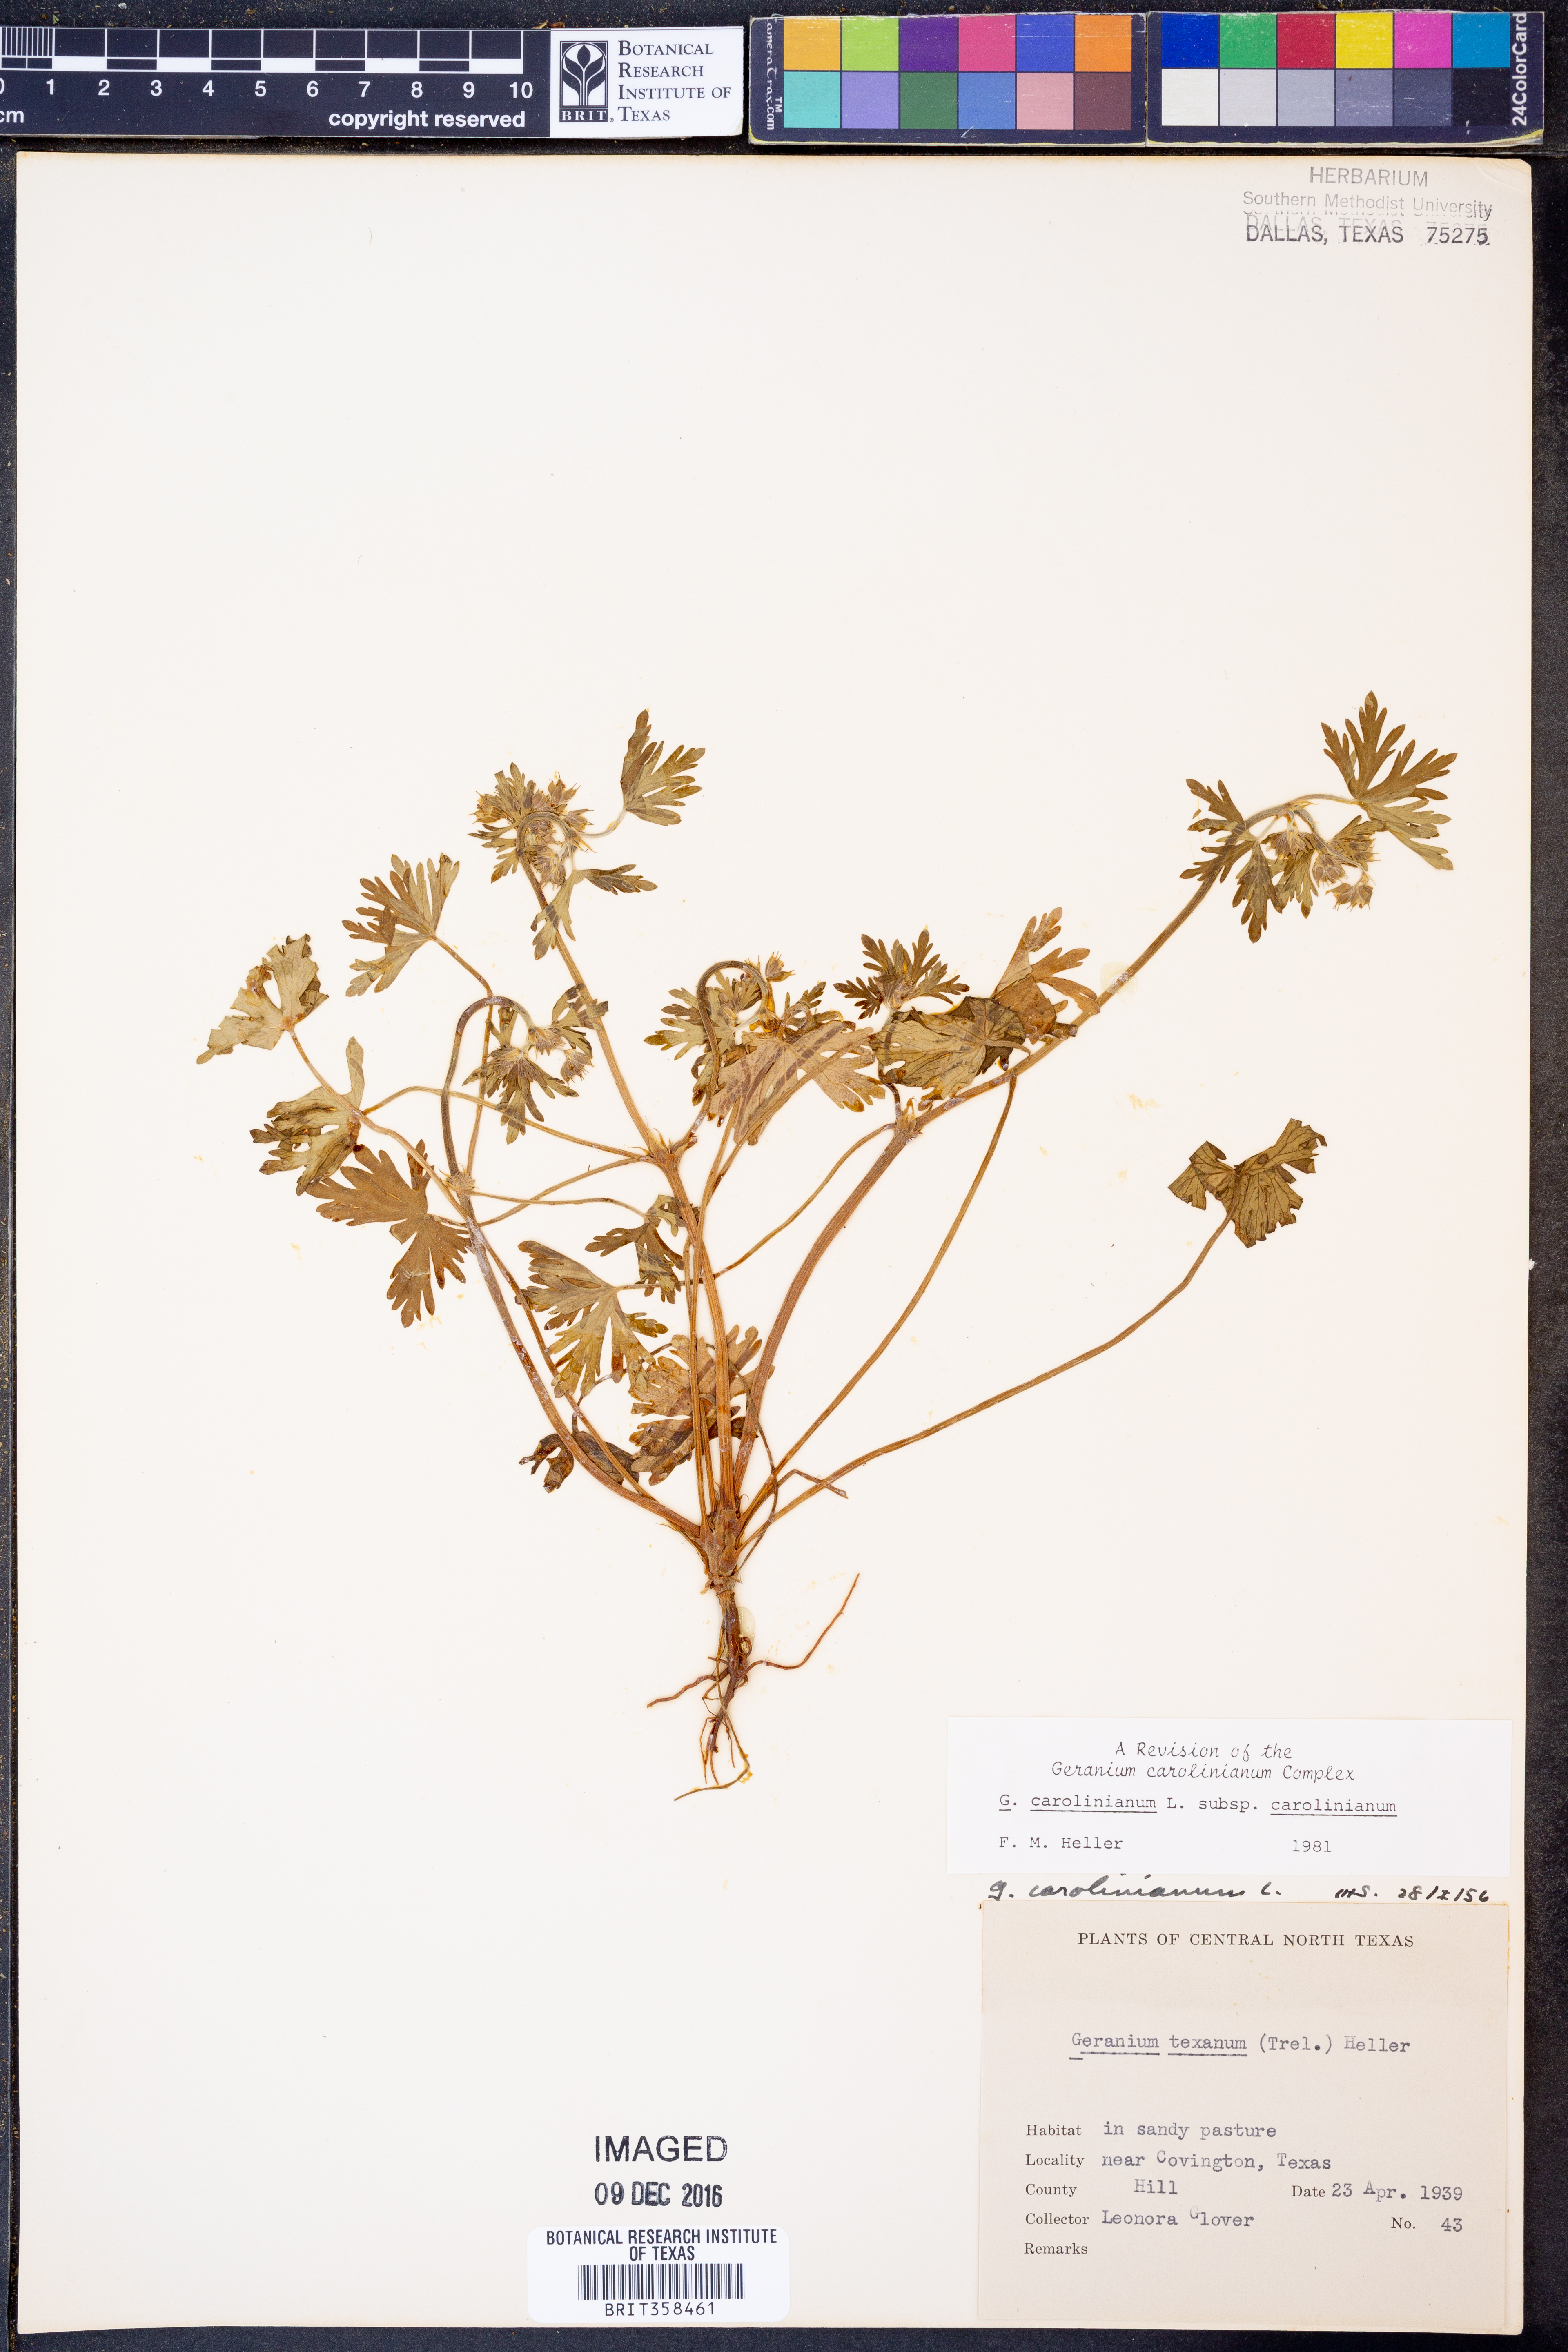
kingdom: Plantae
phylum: Tracheophyta
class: Magnoliopsida
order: Geraniales
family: Geraniaceae
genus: Geranium
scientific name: Geranium carolinianum
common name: Carolina crane's-bill
